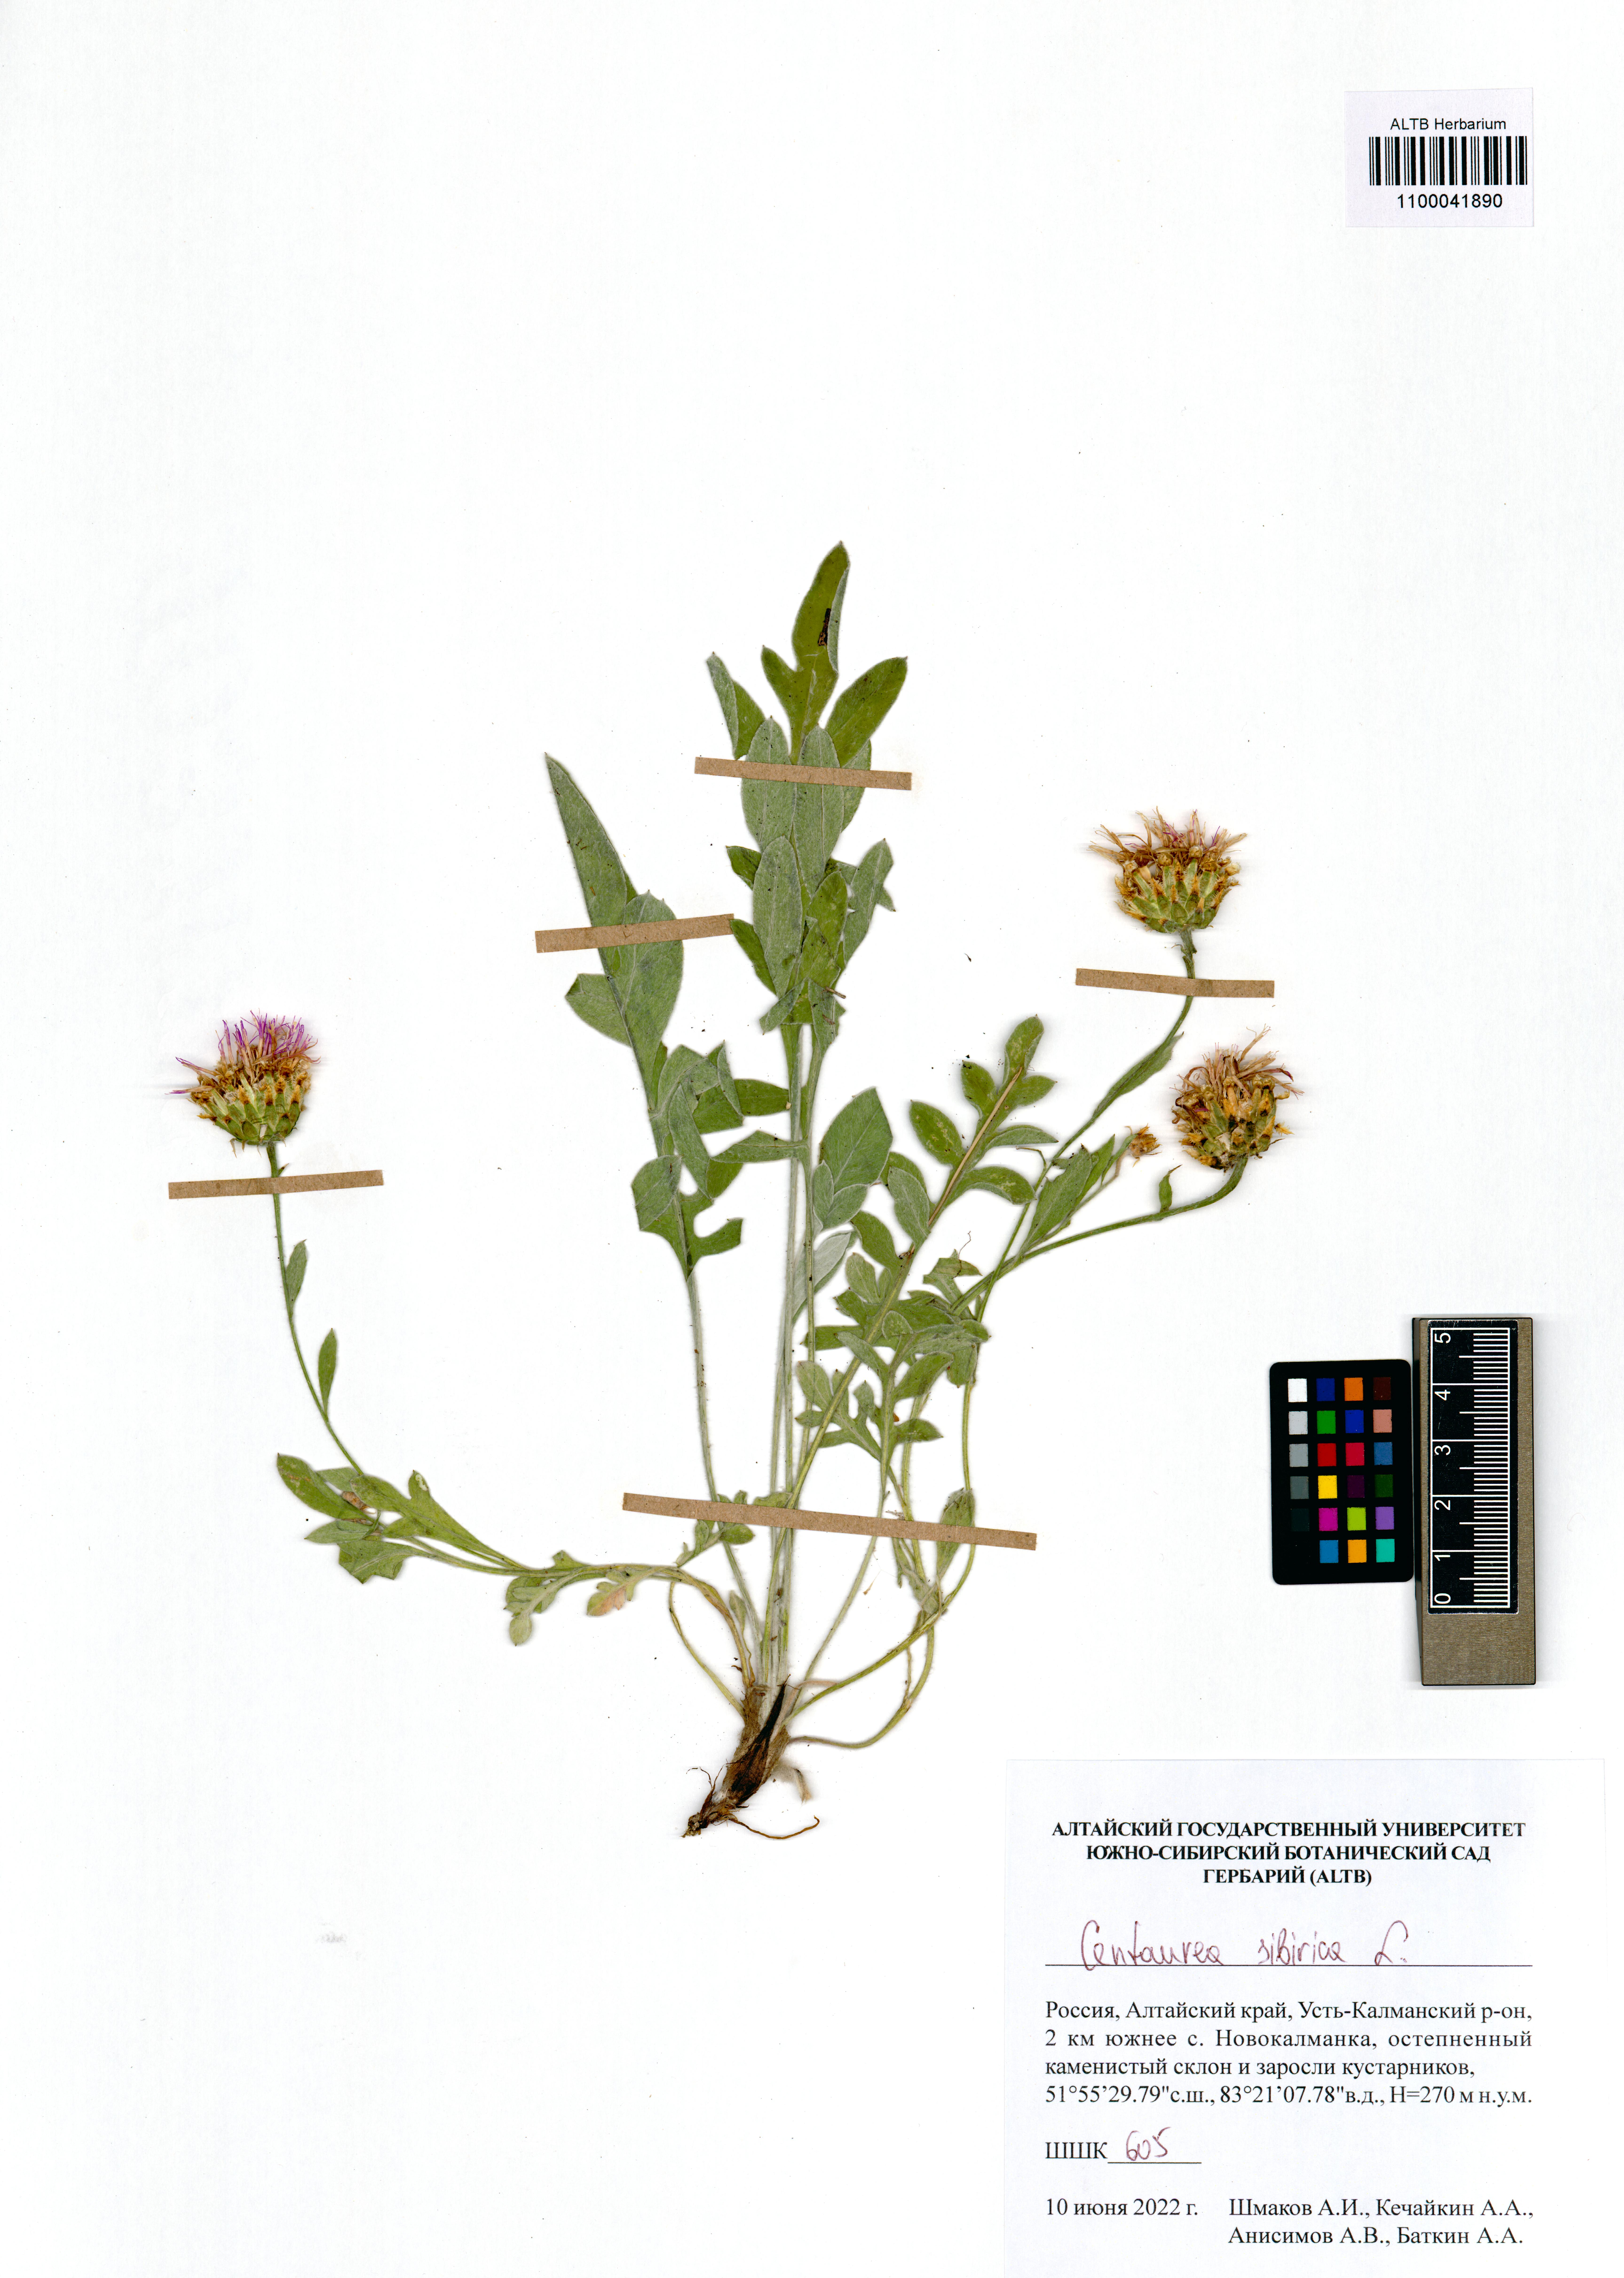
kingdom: Plantae
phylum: Tracheophyta
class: Magnoliopsida
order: Asterales
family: Asteraceae
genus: Psephellus
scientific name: Psephellus sibiricus
